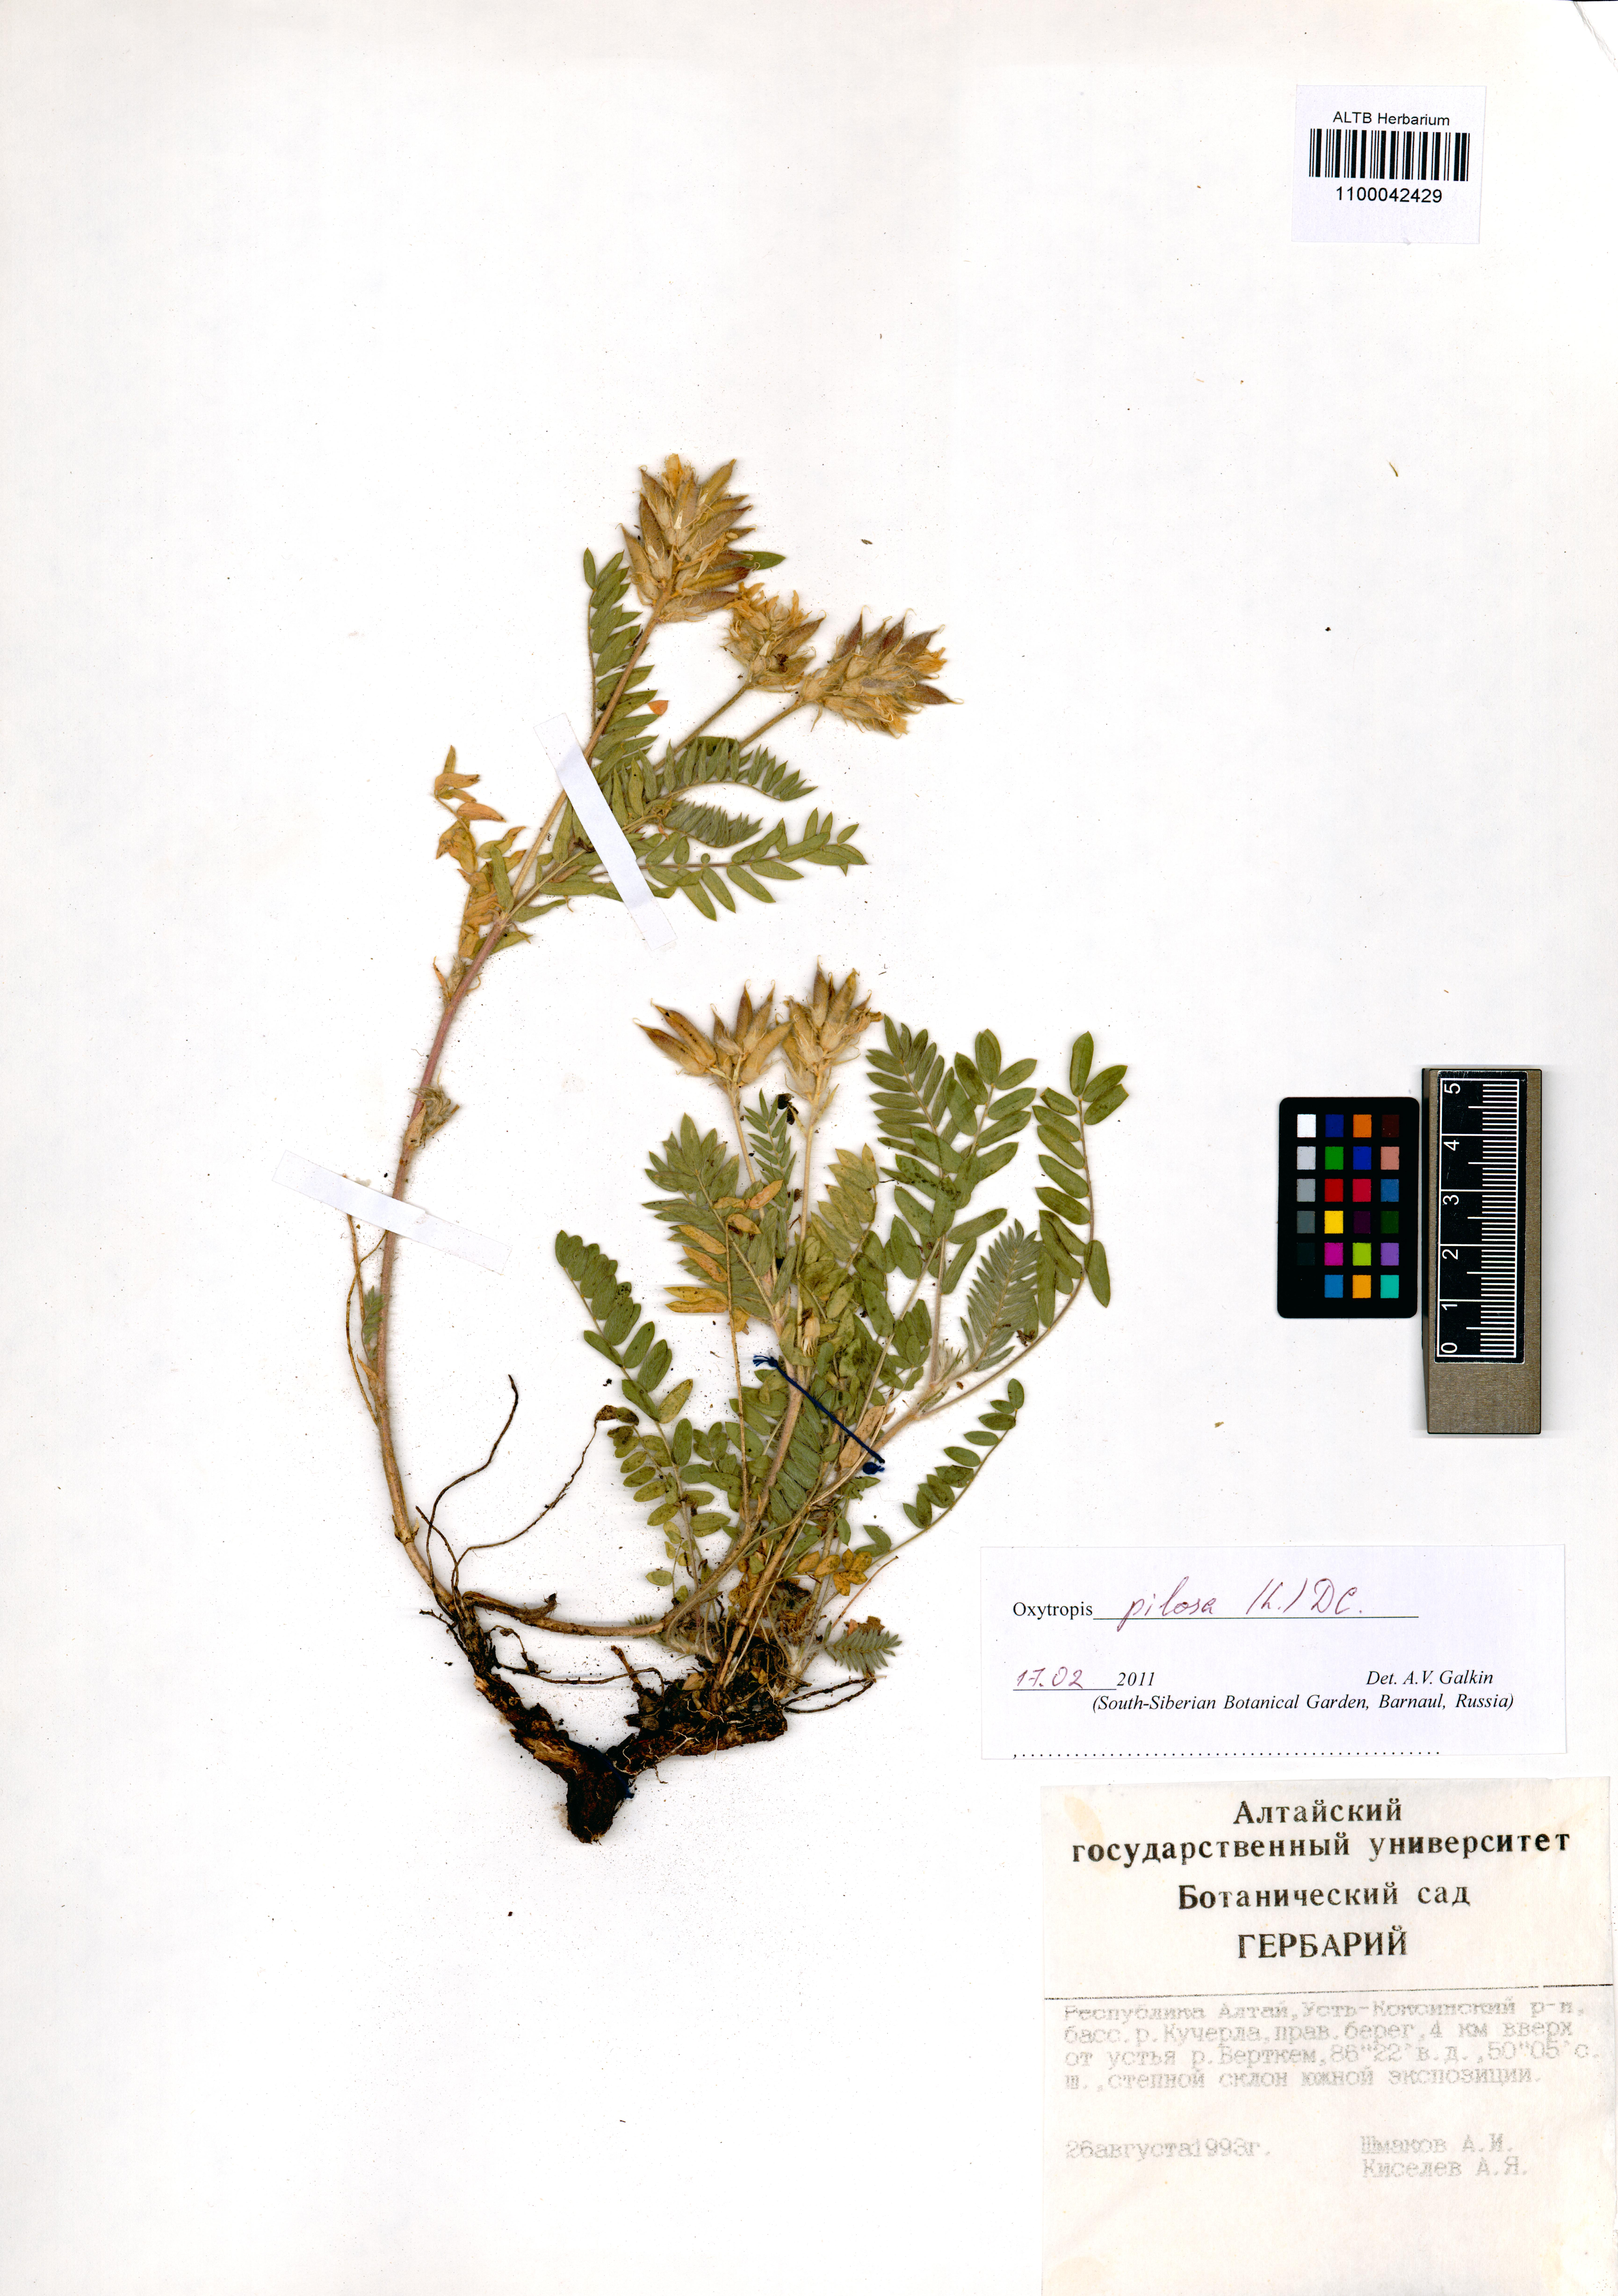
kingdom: Plantae
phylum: Tracheophyta
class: Magnoliopsida
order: Fabales
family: Fabaceae
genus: Oxytropis
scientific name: Oxytropis pilosa
